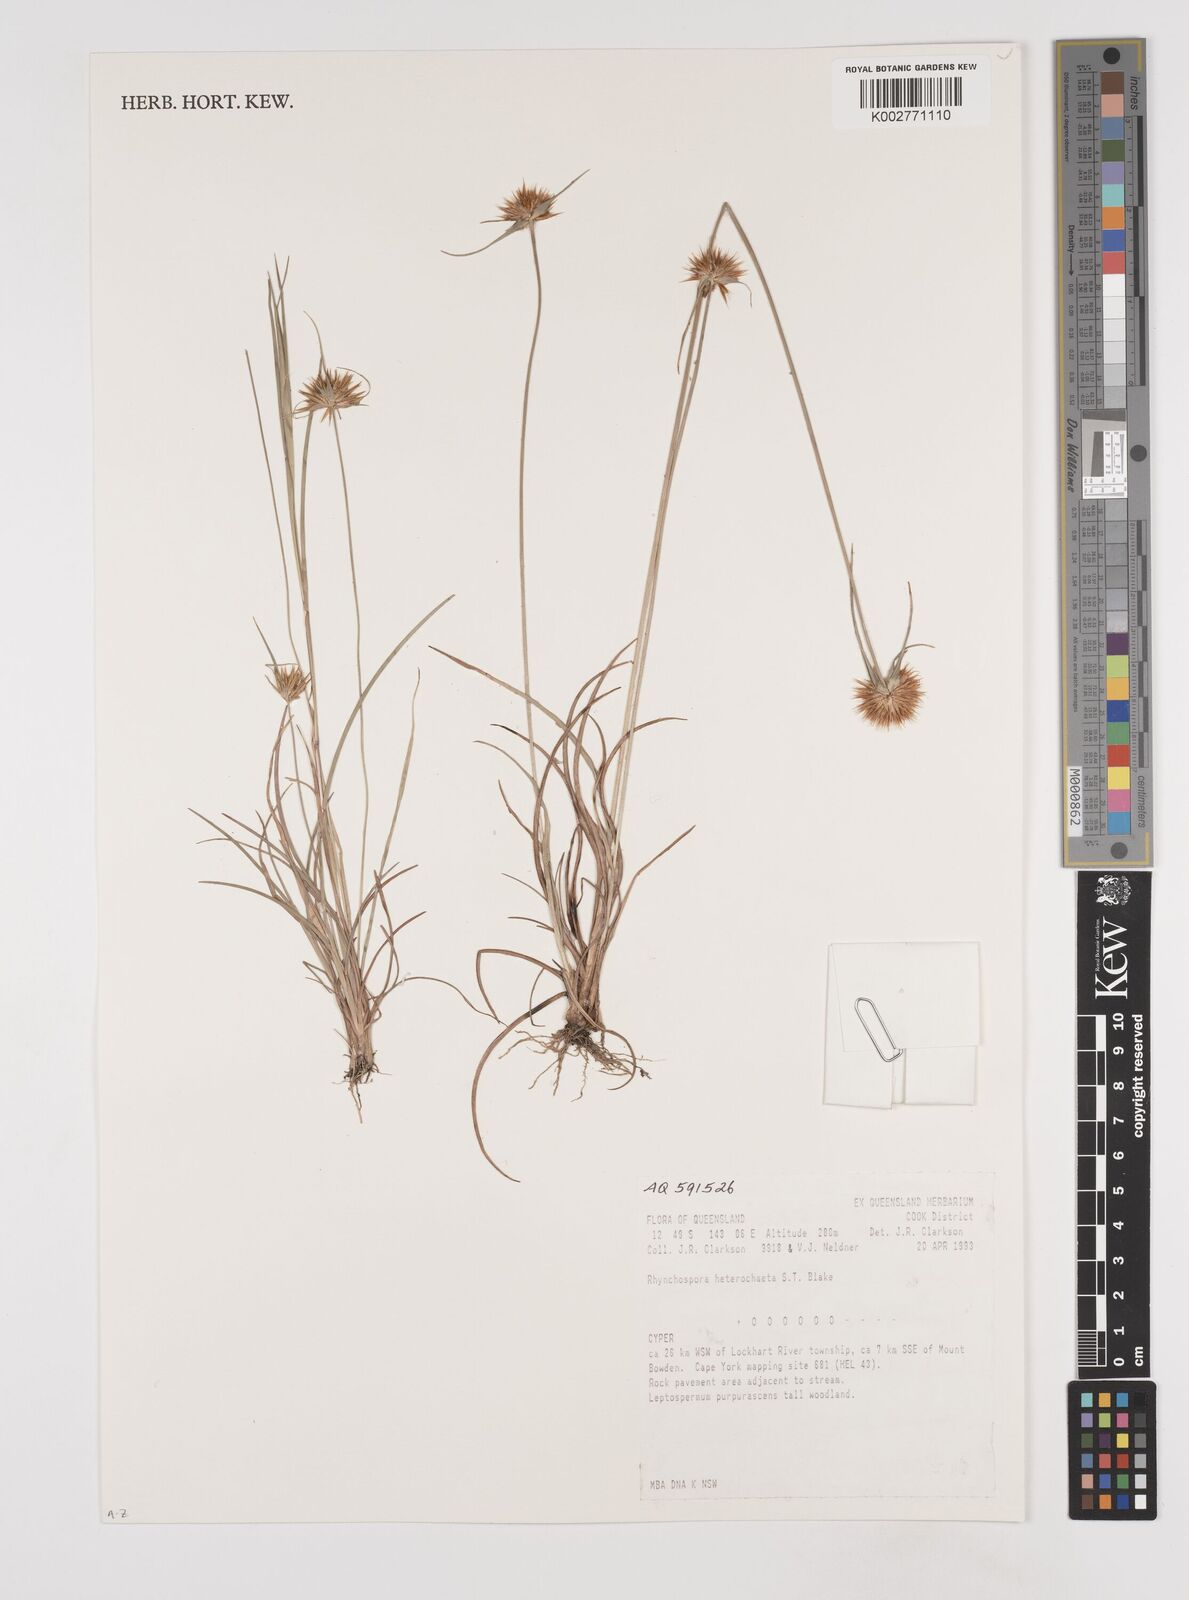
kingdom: Plantae
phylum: Tracheophyta
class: Liliopsida
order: Poales
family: Cyperaceae
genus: Rhynchospora
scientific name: Rhynchospora heterochaeta
